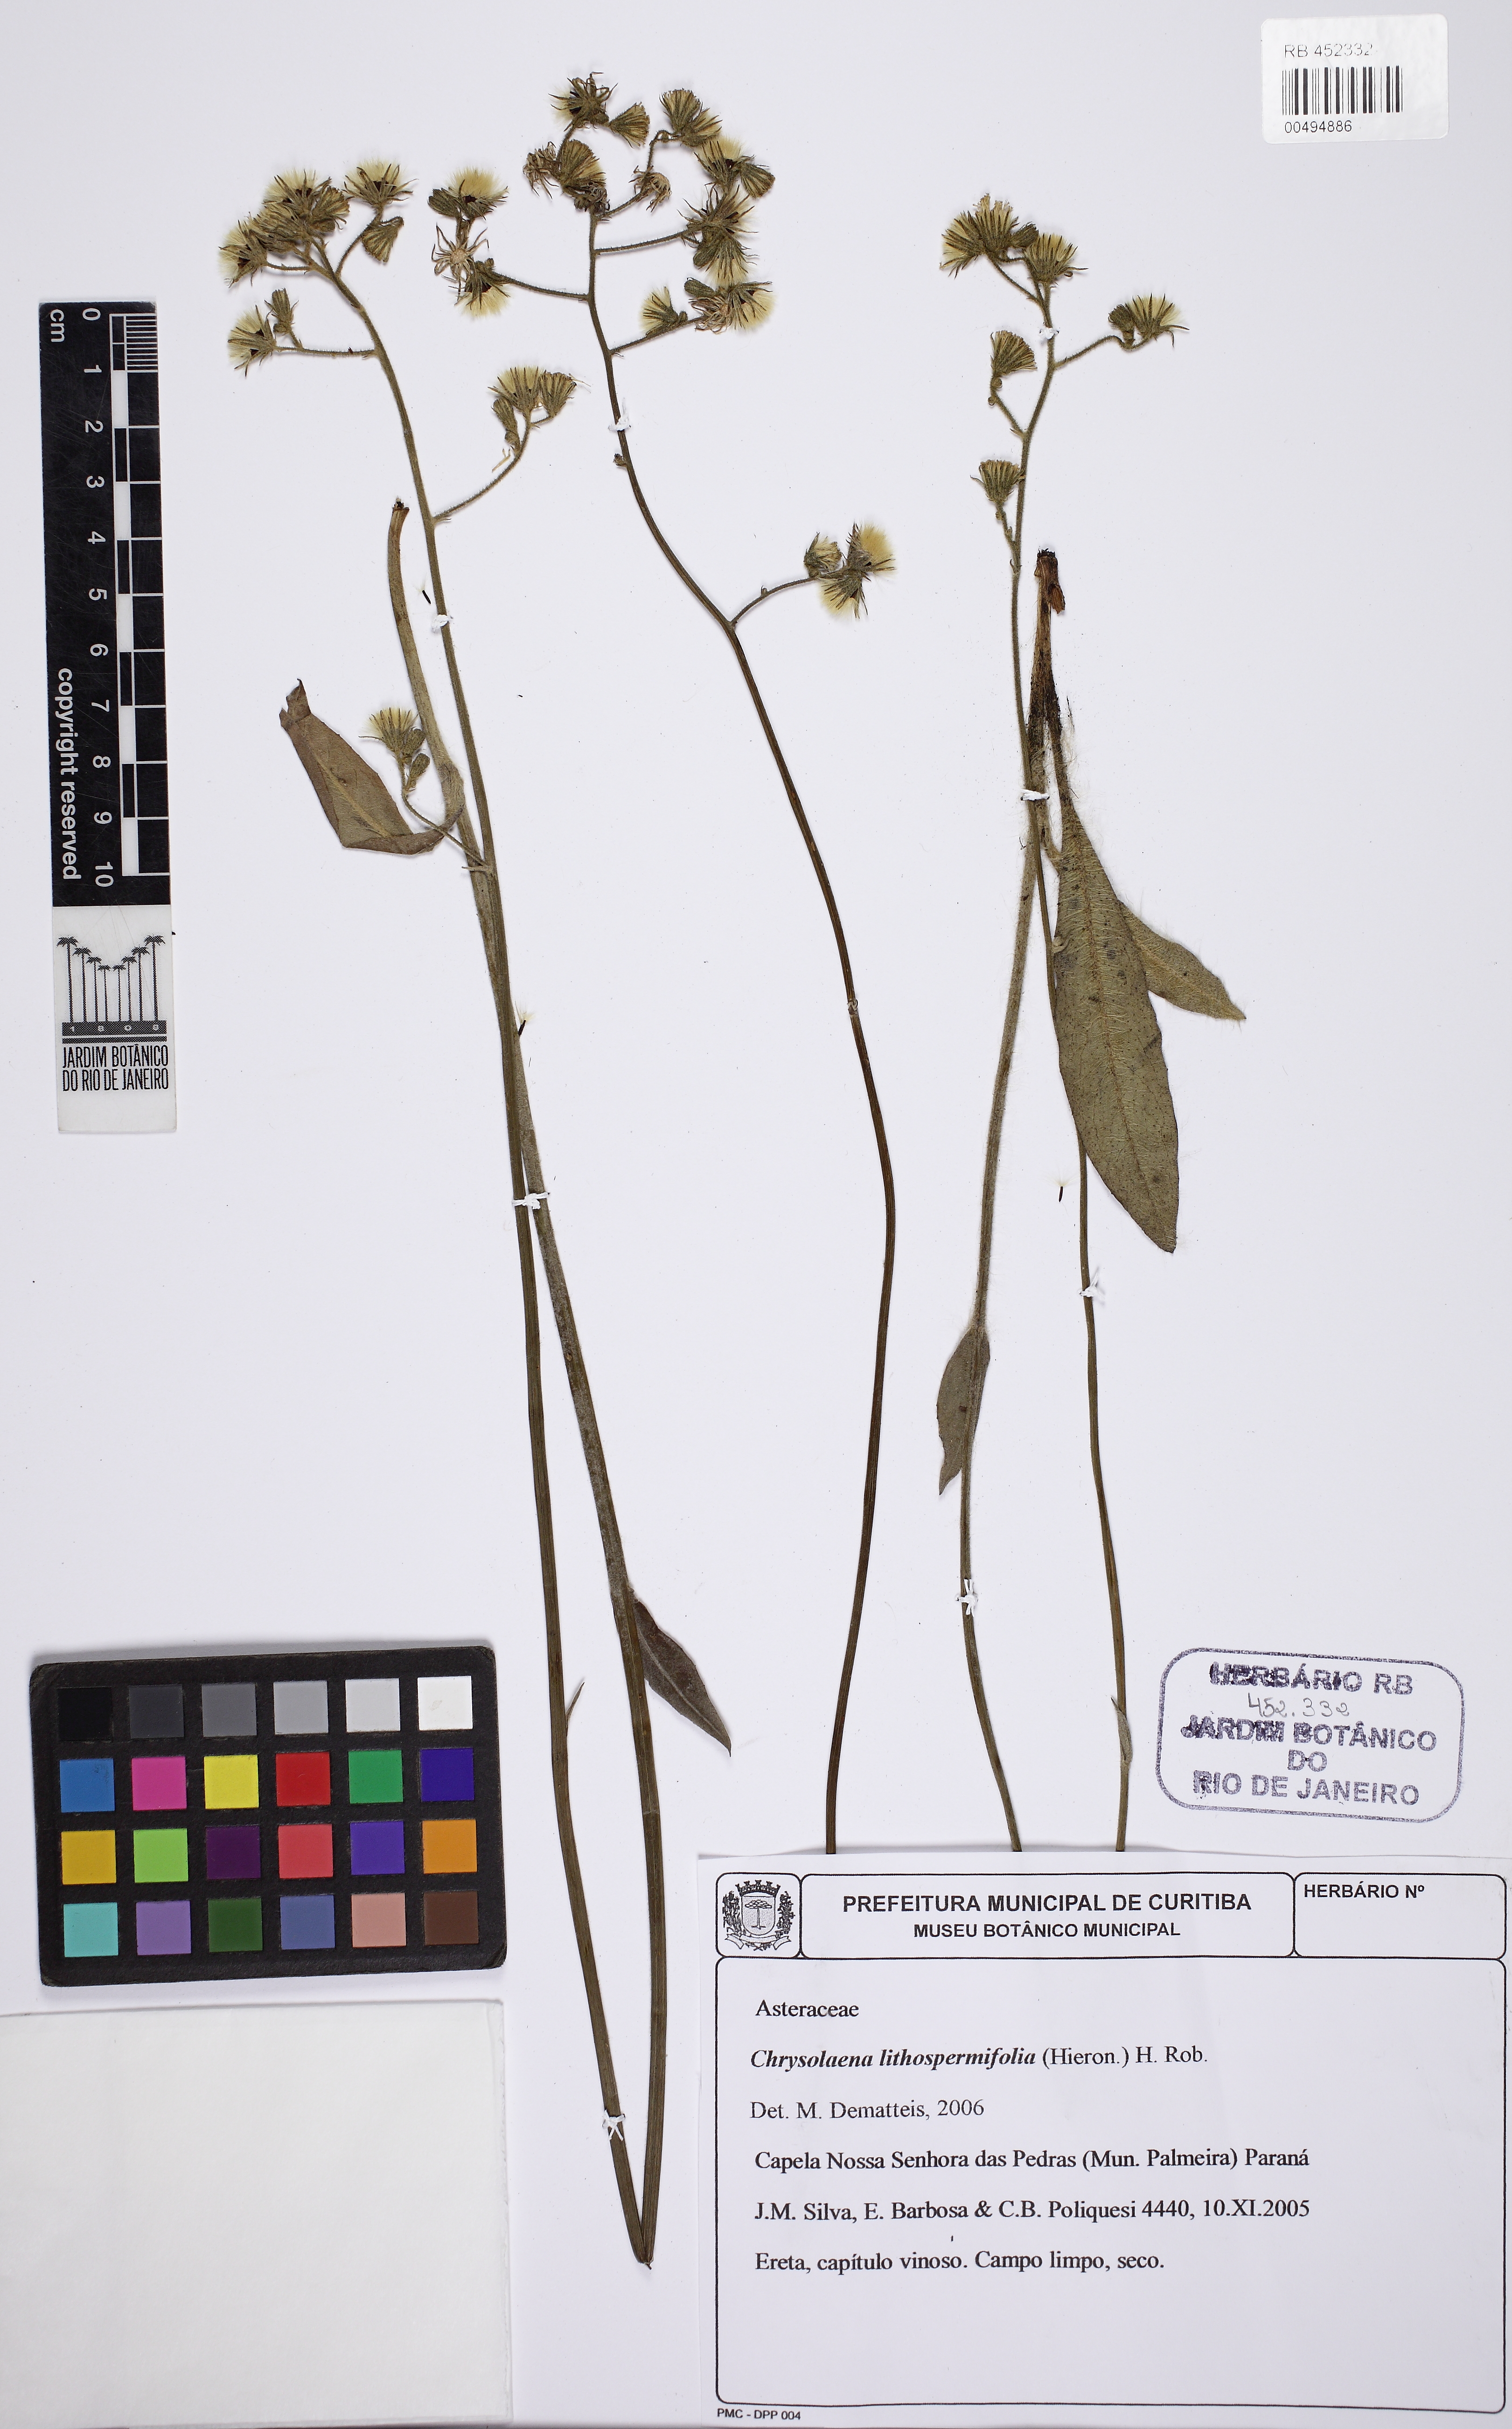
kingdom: Plantae
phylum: Tracheophyta
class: Magnoliopsida
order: Asterales
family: Asteraceae
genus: Chrysolaena
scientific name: Chrysolaena lithospermifolia
